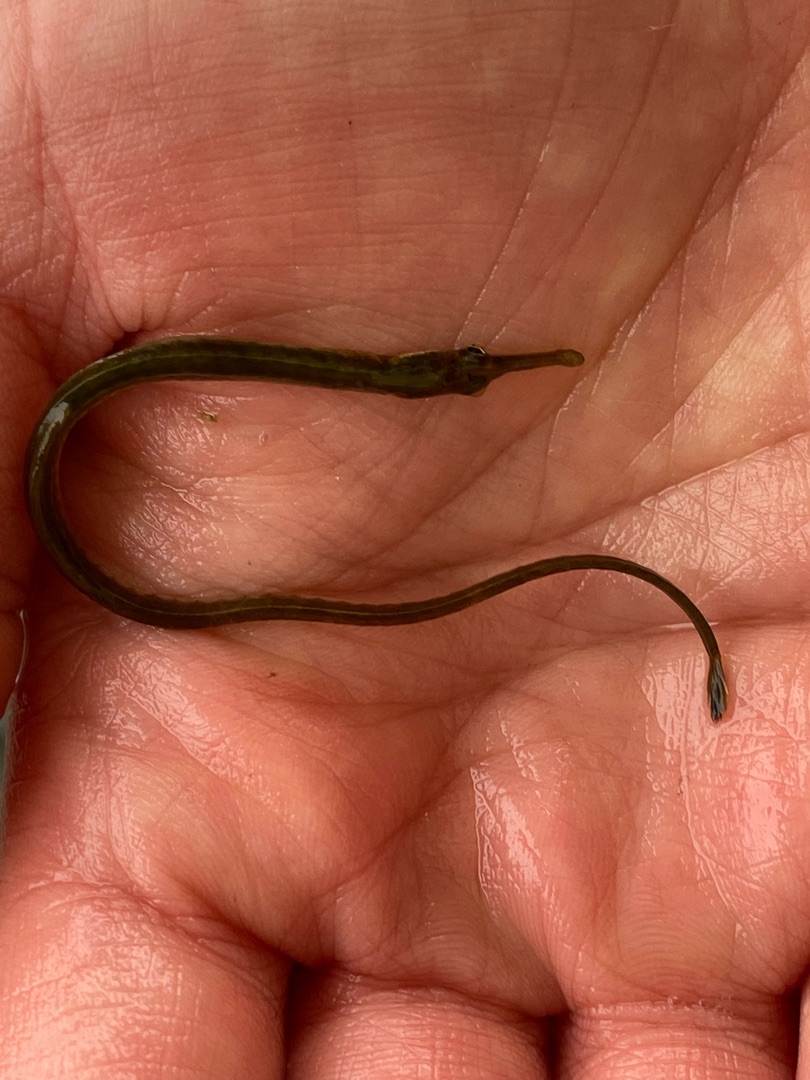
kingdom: Animalia
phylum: Chordata
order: Syngnathiformes
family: Syngnathidae
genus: Syngnathus
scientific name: Syngnathus rostellatus
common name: Lille tangnål
